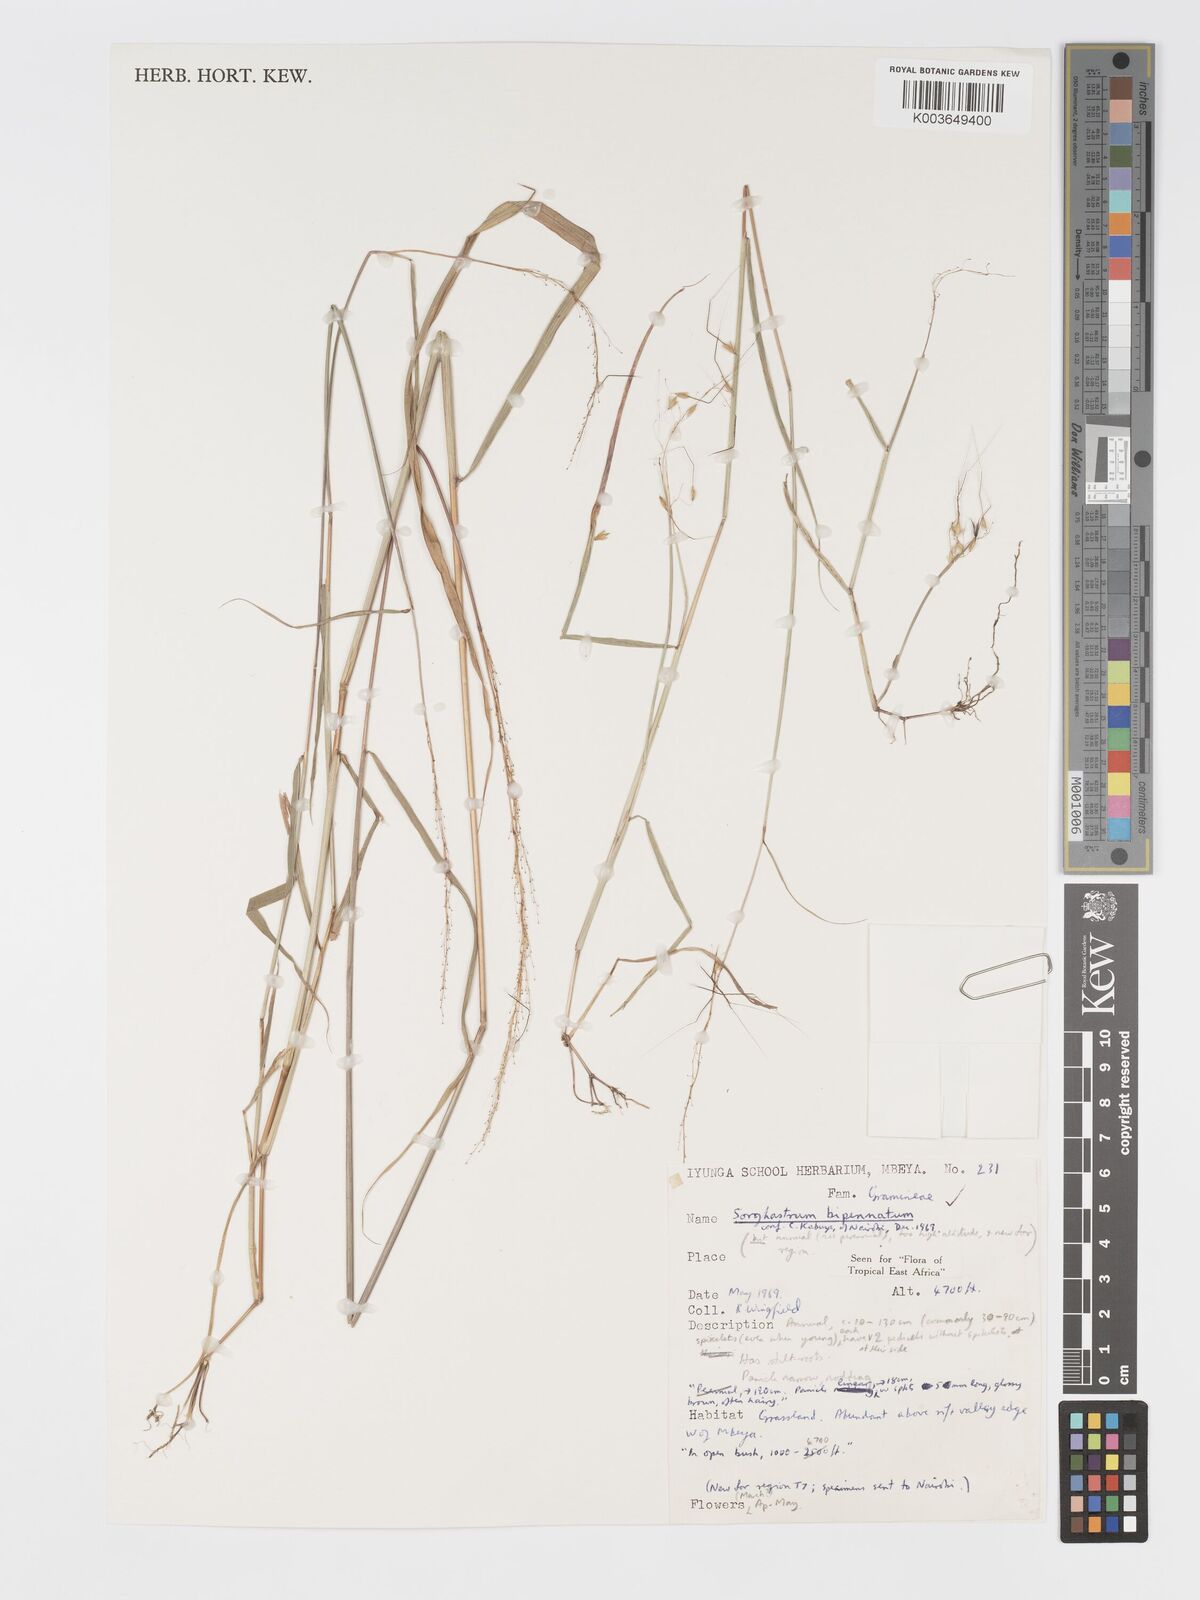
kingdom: Plantae
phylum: Tracheophyta
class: Liliopsida
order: Poales
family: Poaceae
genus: Sorghastrum
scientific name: Sorghastrum incompletum
